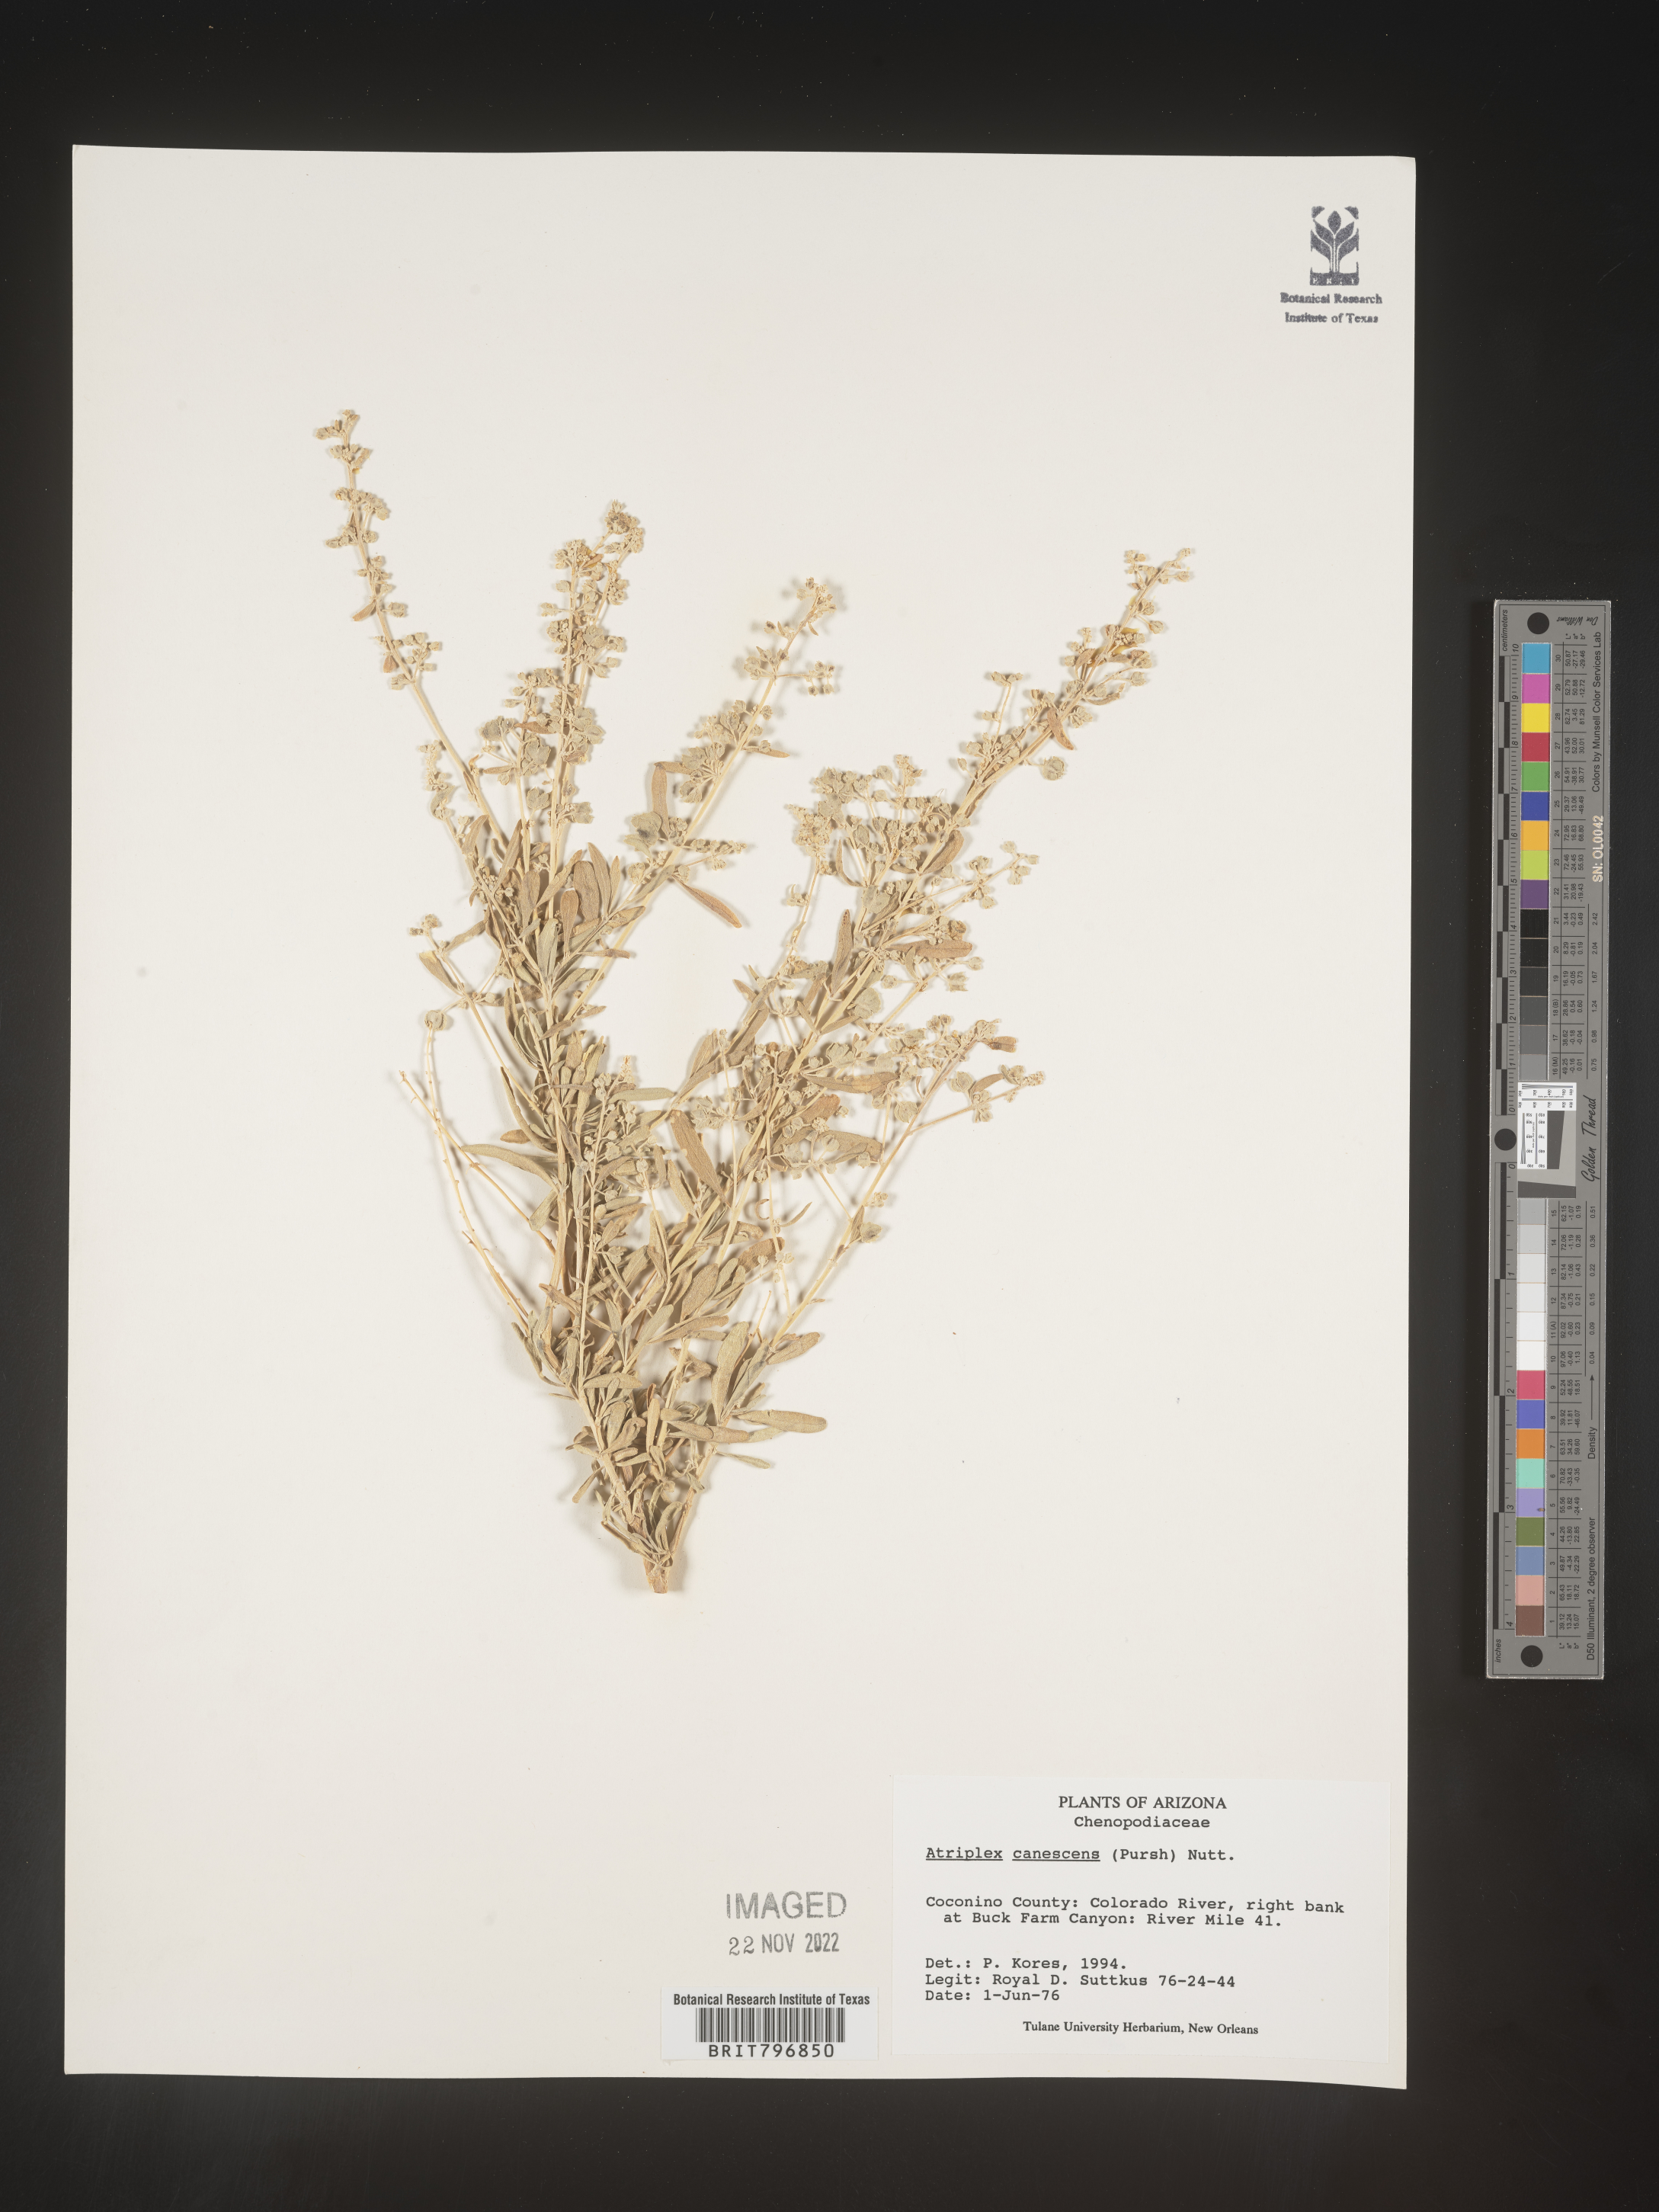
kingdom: Plantae
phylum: Tracheophyta
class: Magnoliopsida
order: Caryophyllales
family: Amaranthaceae
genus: Atriplex
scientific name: Atriplex canescens
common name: Four-wing saltbush
